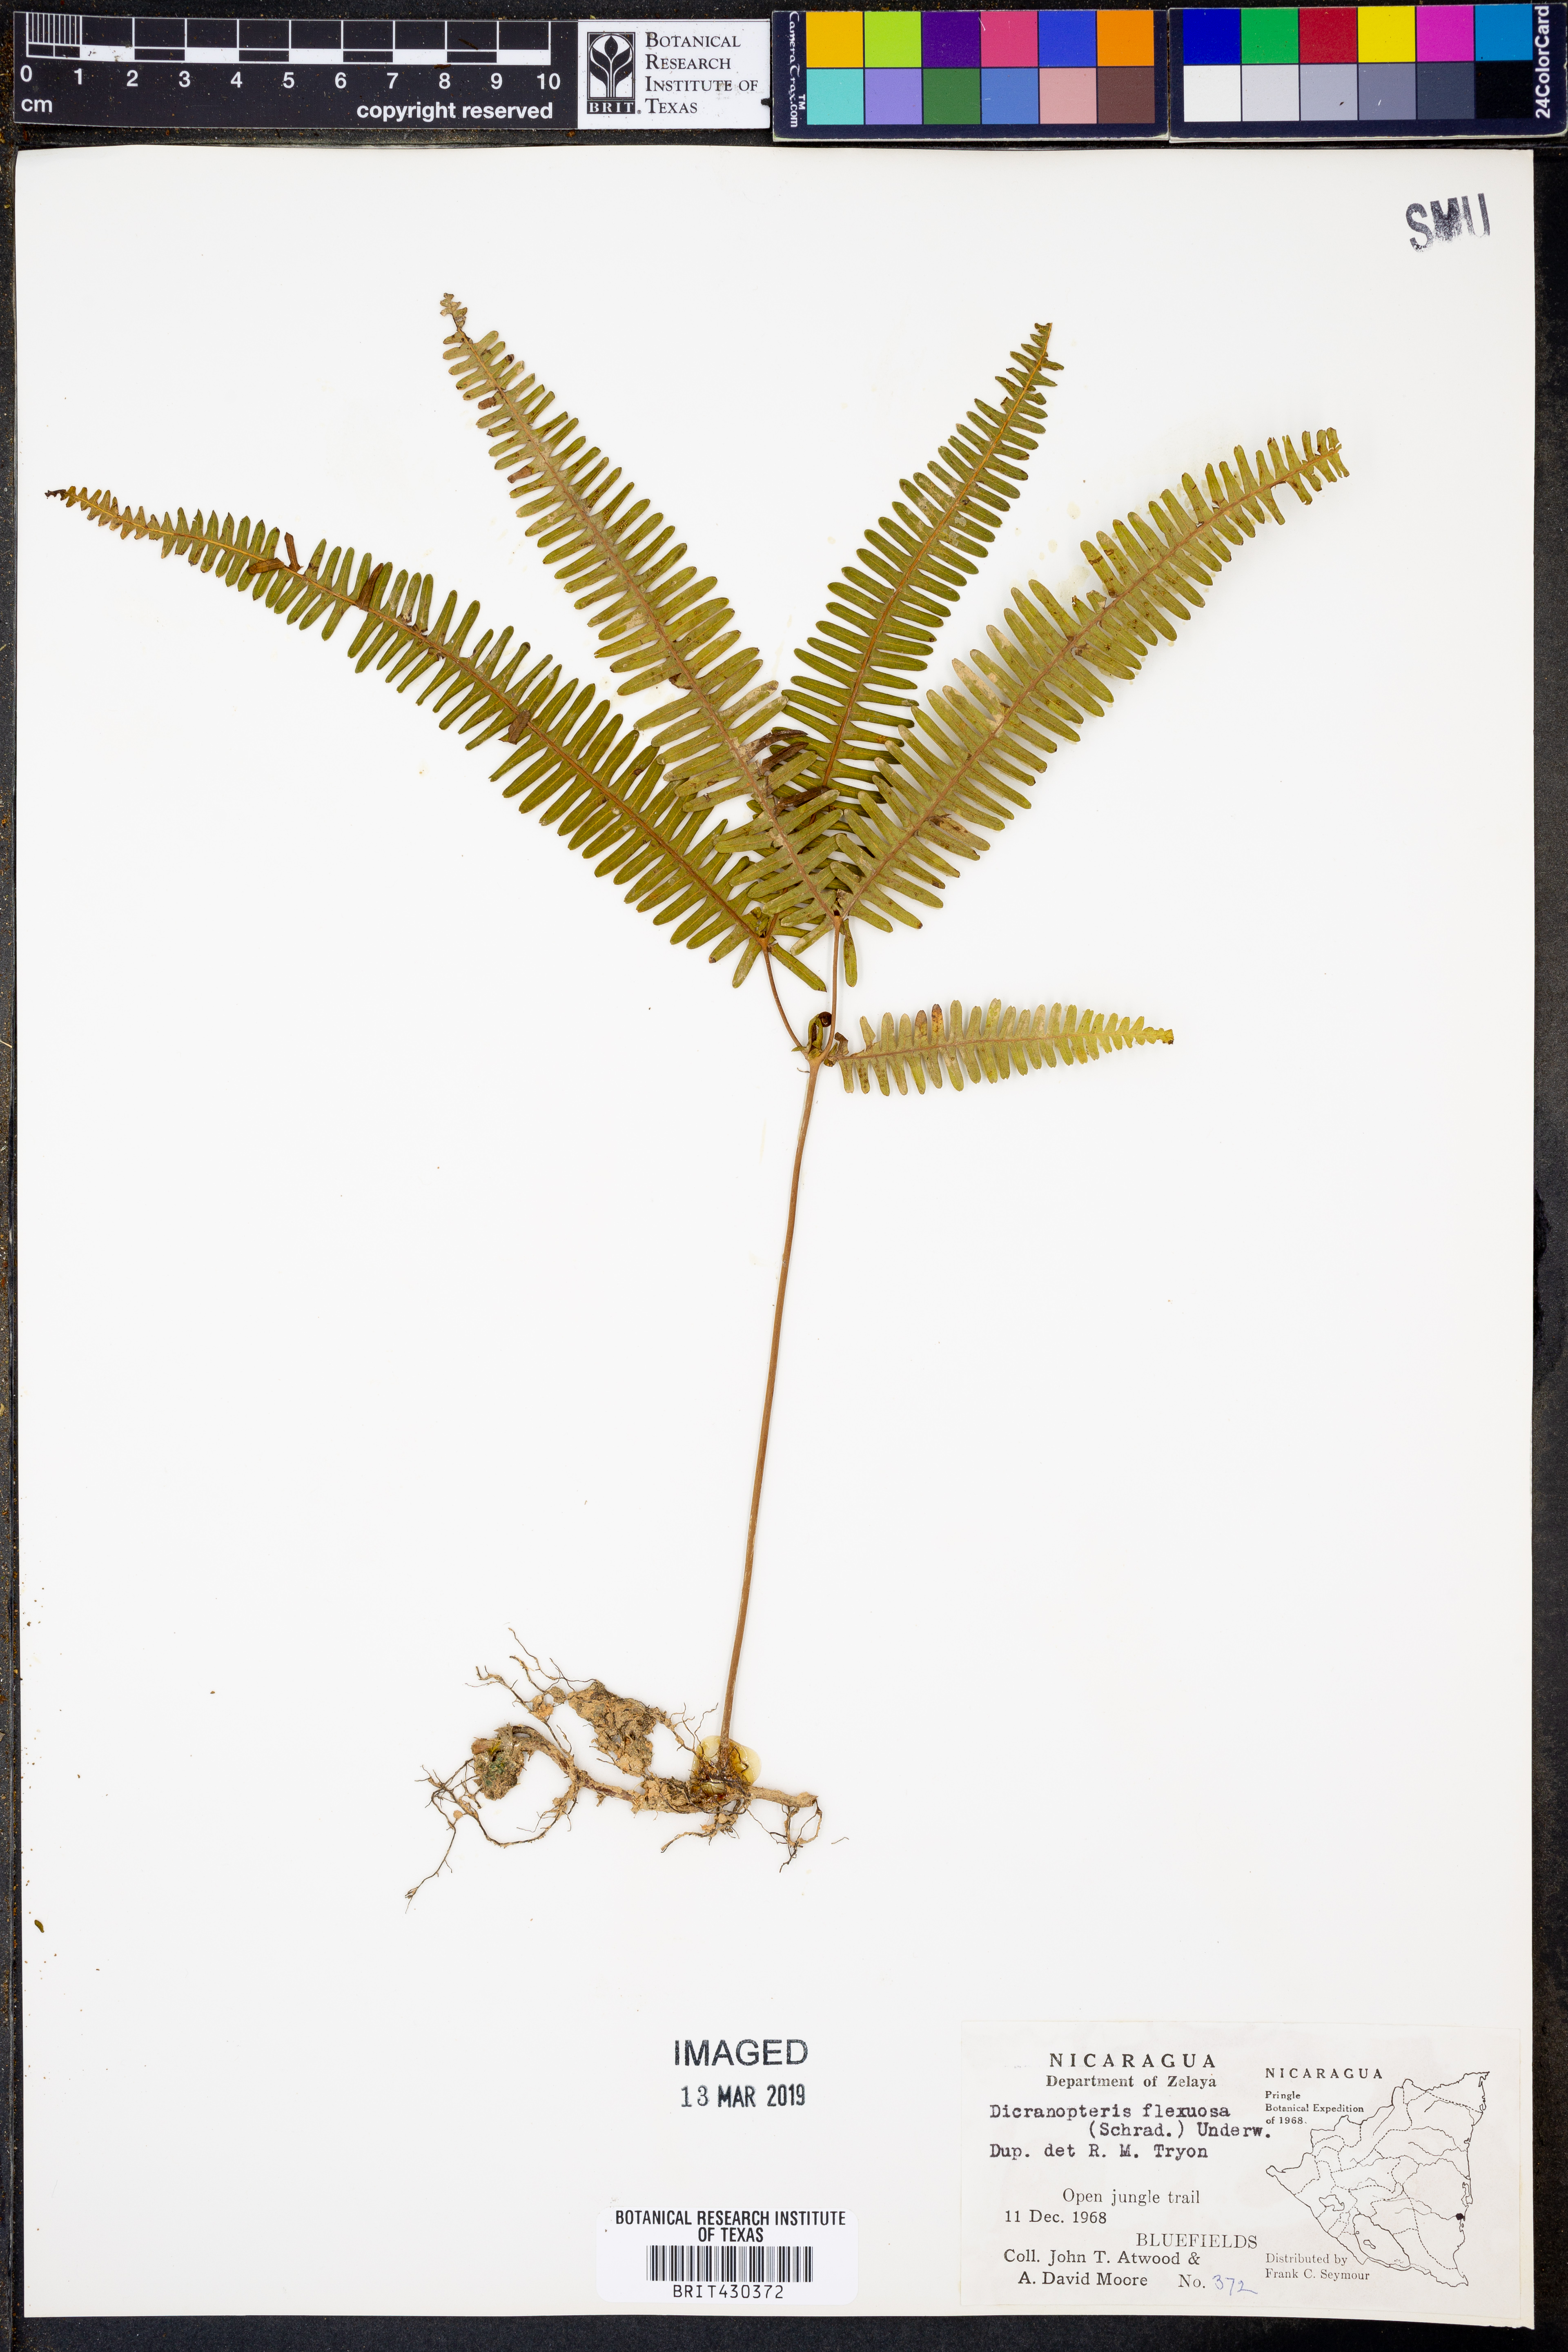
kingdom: Plantae
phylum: Tracheophyta
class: Polypodiopsida
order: Gleicheniales
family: Gleicheniaceae
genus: Dicranopteris
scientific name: Dicranopteris flexuosa
